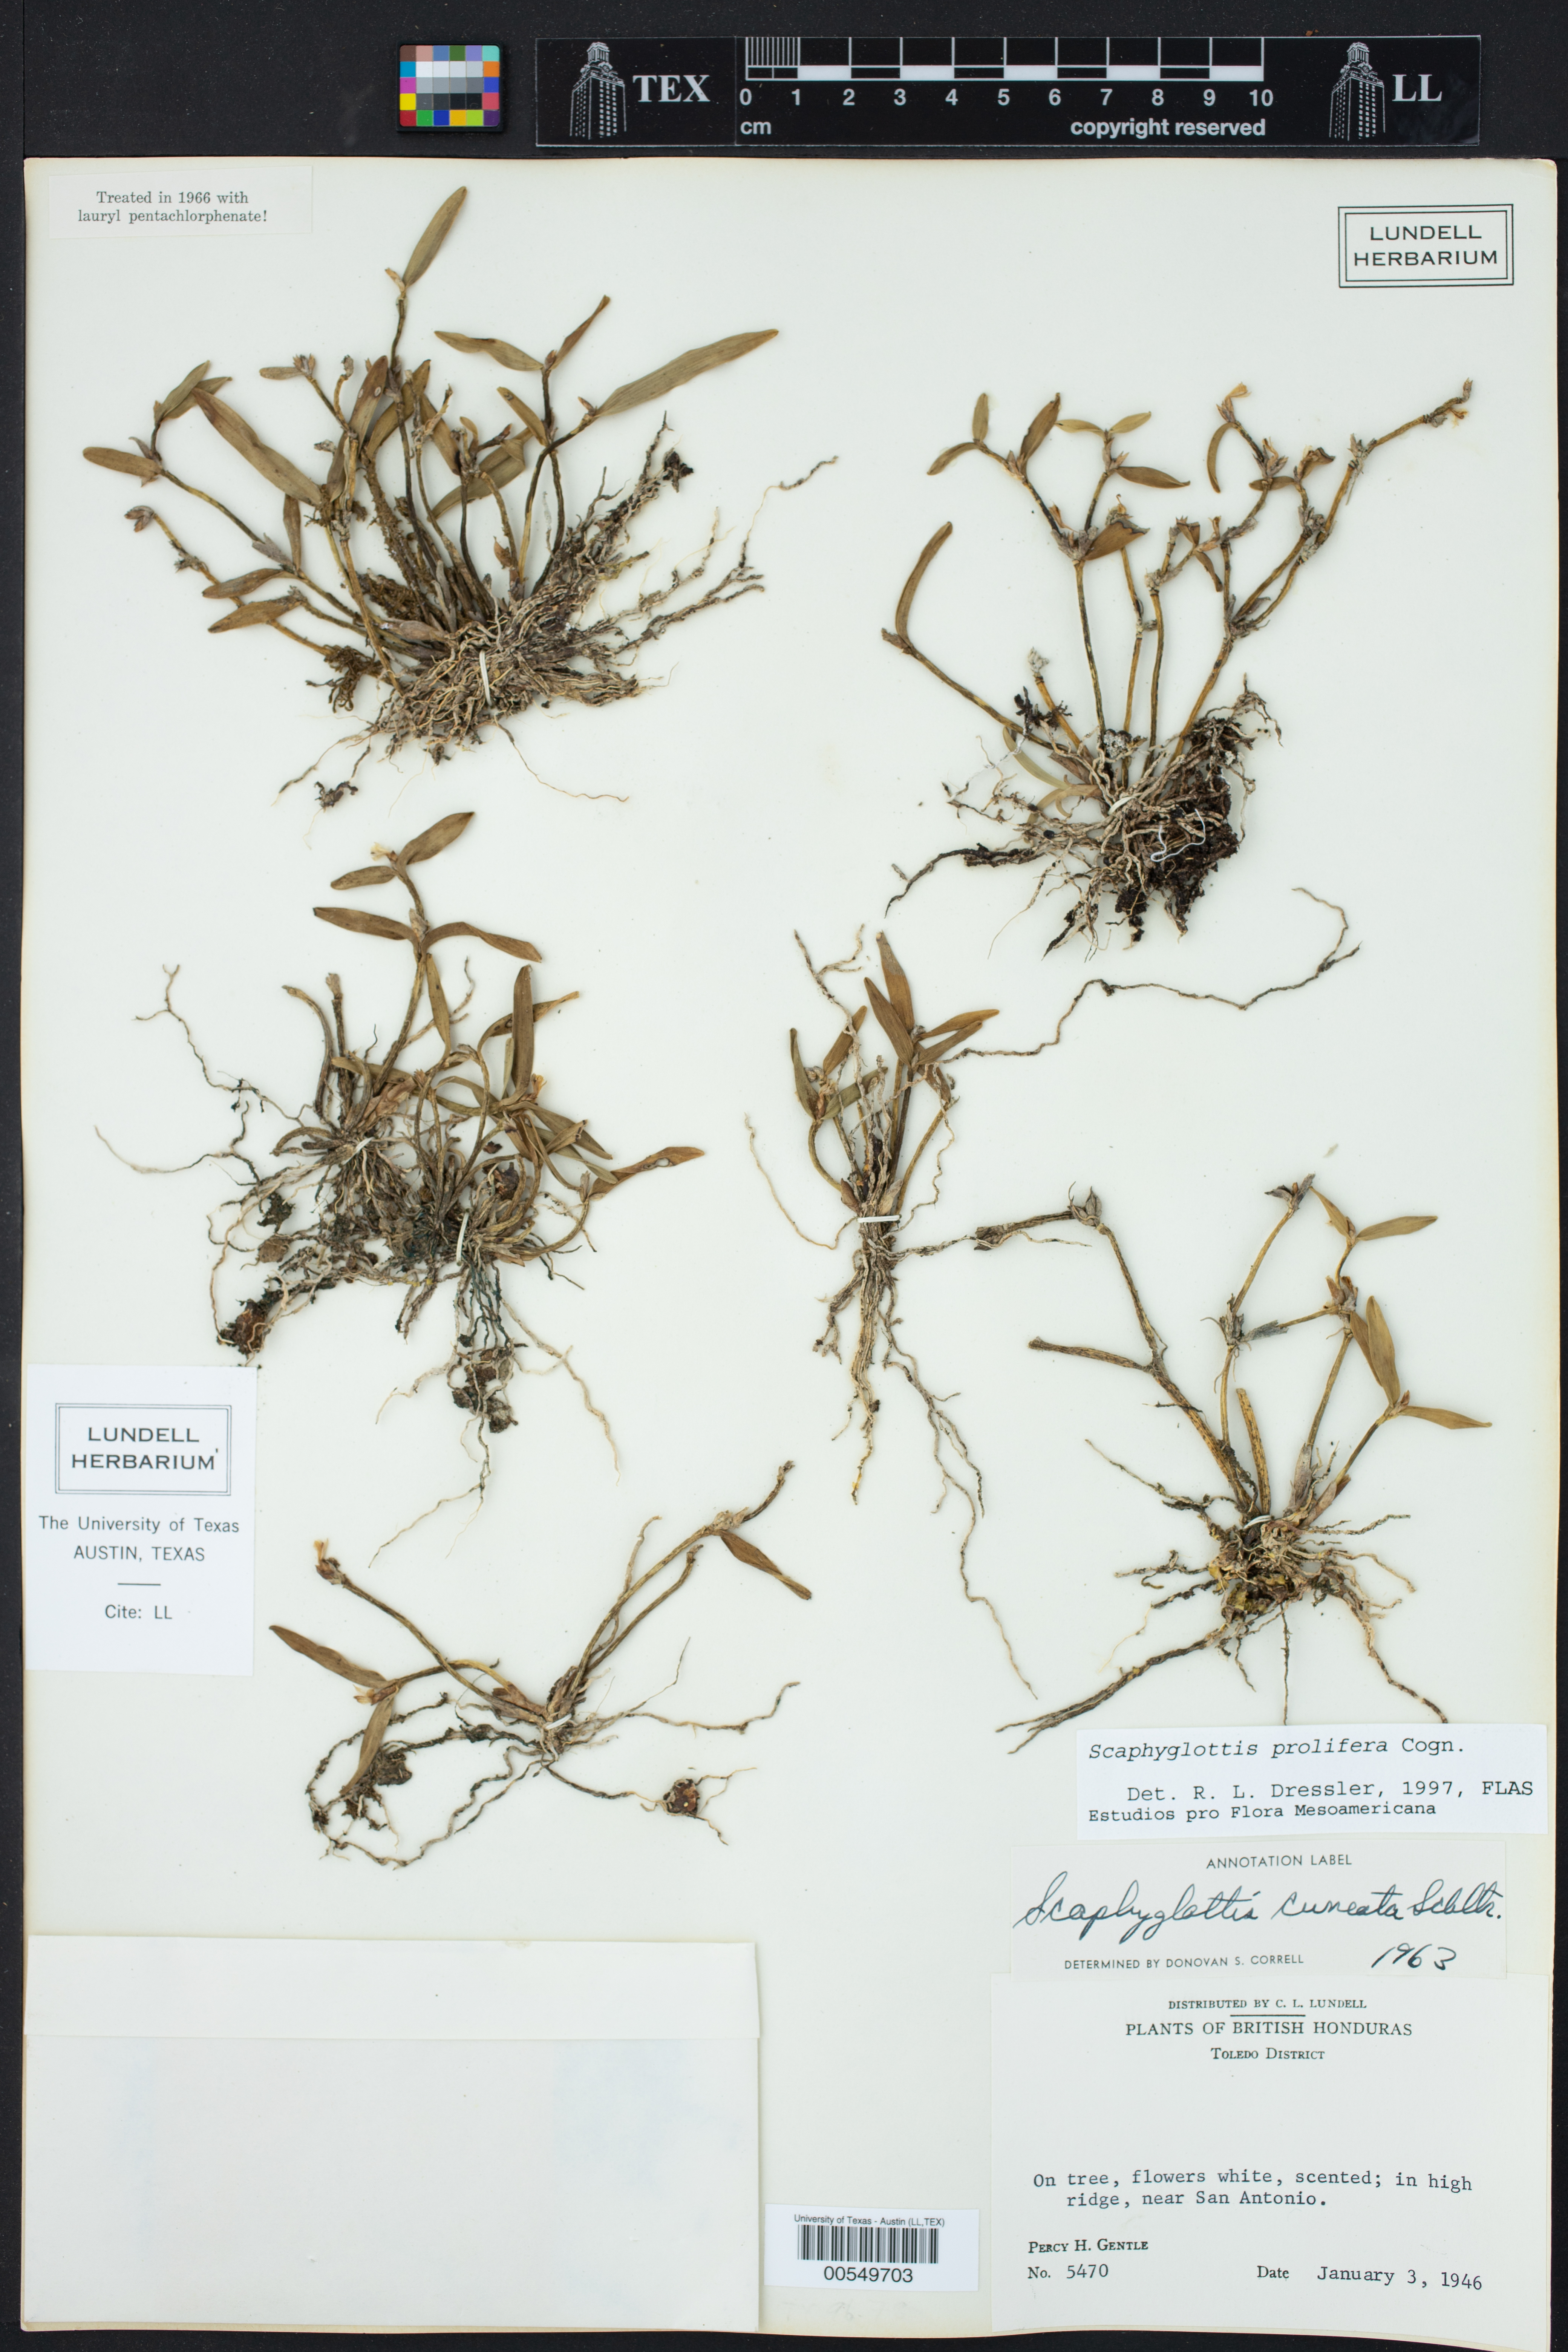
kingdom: Plantae
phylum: Tracheophyta
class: Liliopsida
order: Asparagales
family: Orchidaceae
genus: Scaphyglottis
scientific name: Scaphyglottis prolifera
